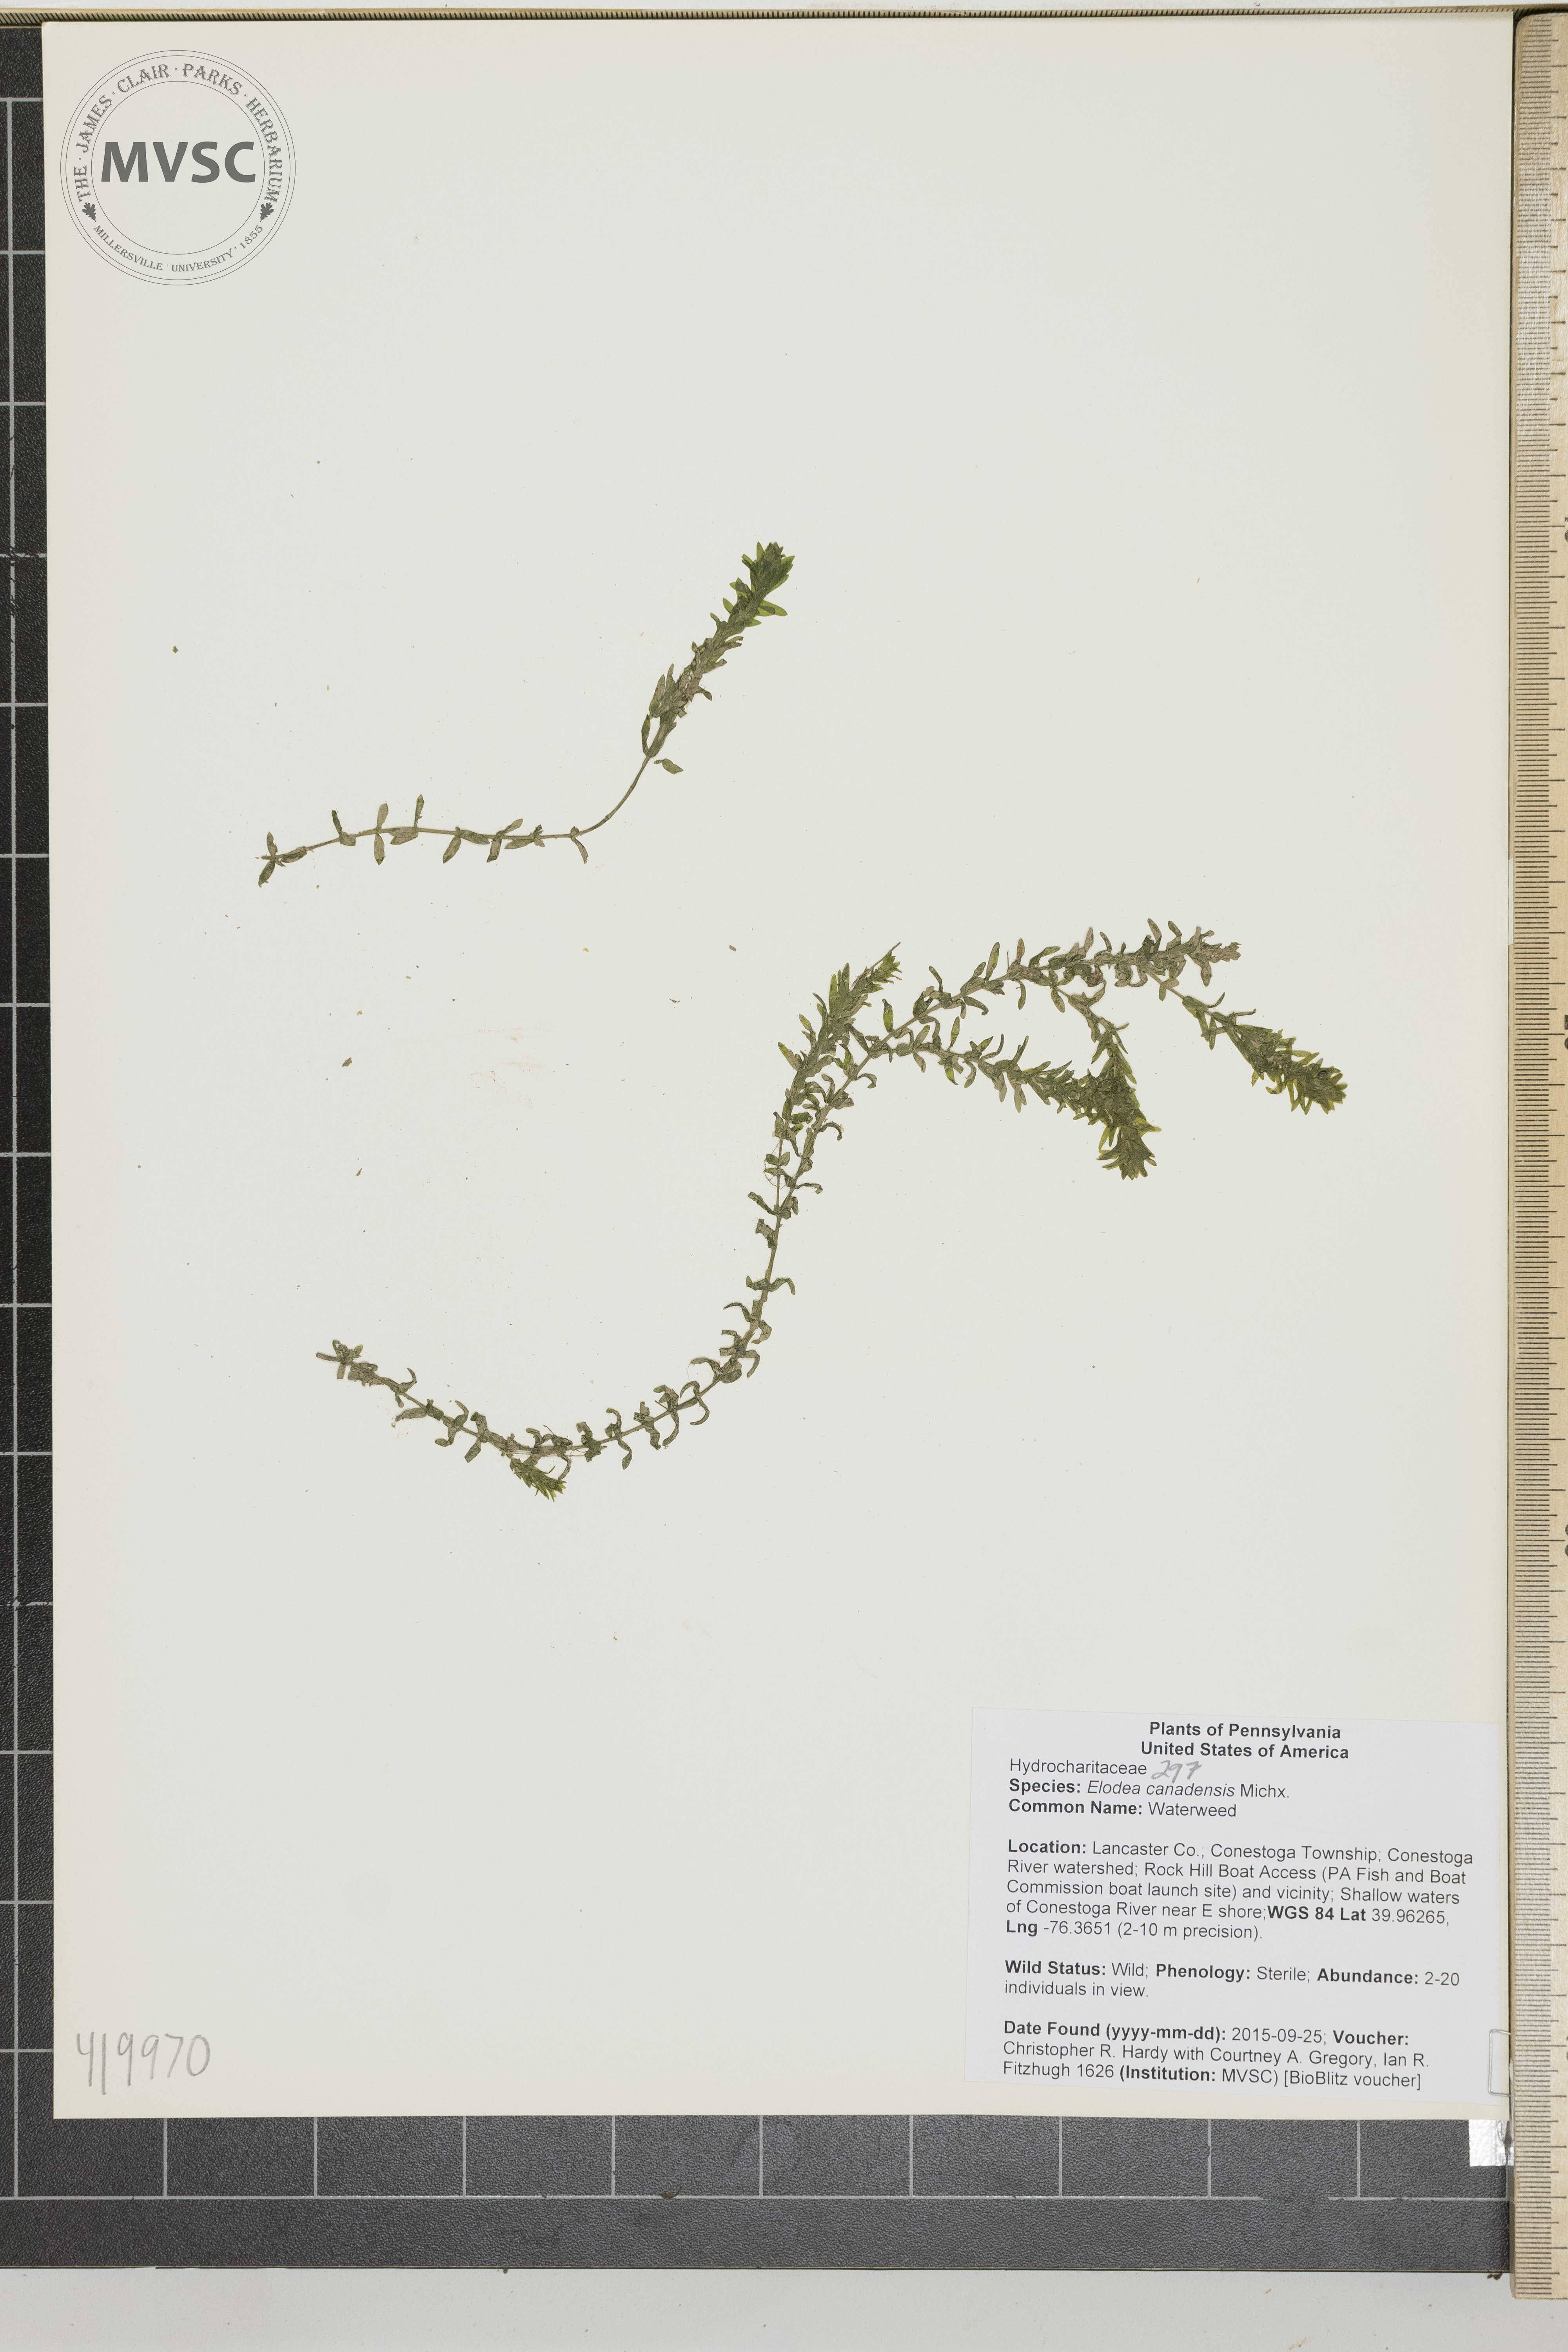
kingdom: Plantae
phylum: Tracheophyta
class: Liliopsida
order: Alismatales
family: Hydrocharitaceae
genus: Elodea
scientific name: Elodea canadensis
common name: Waterweed
